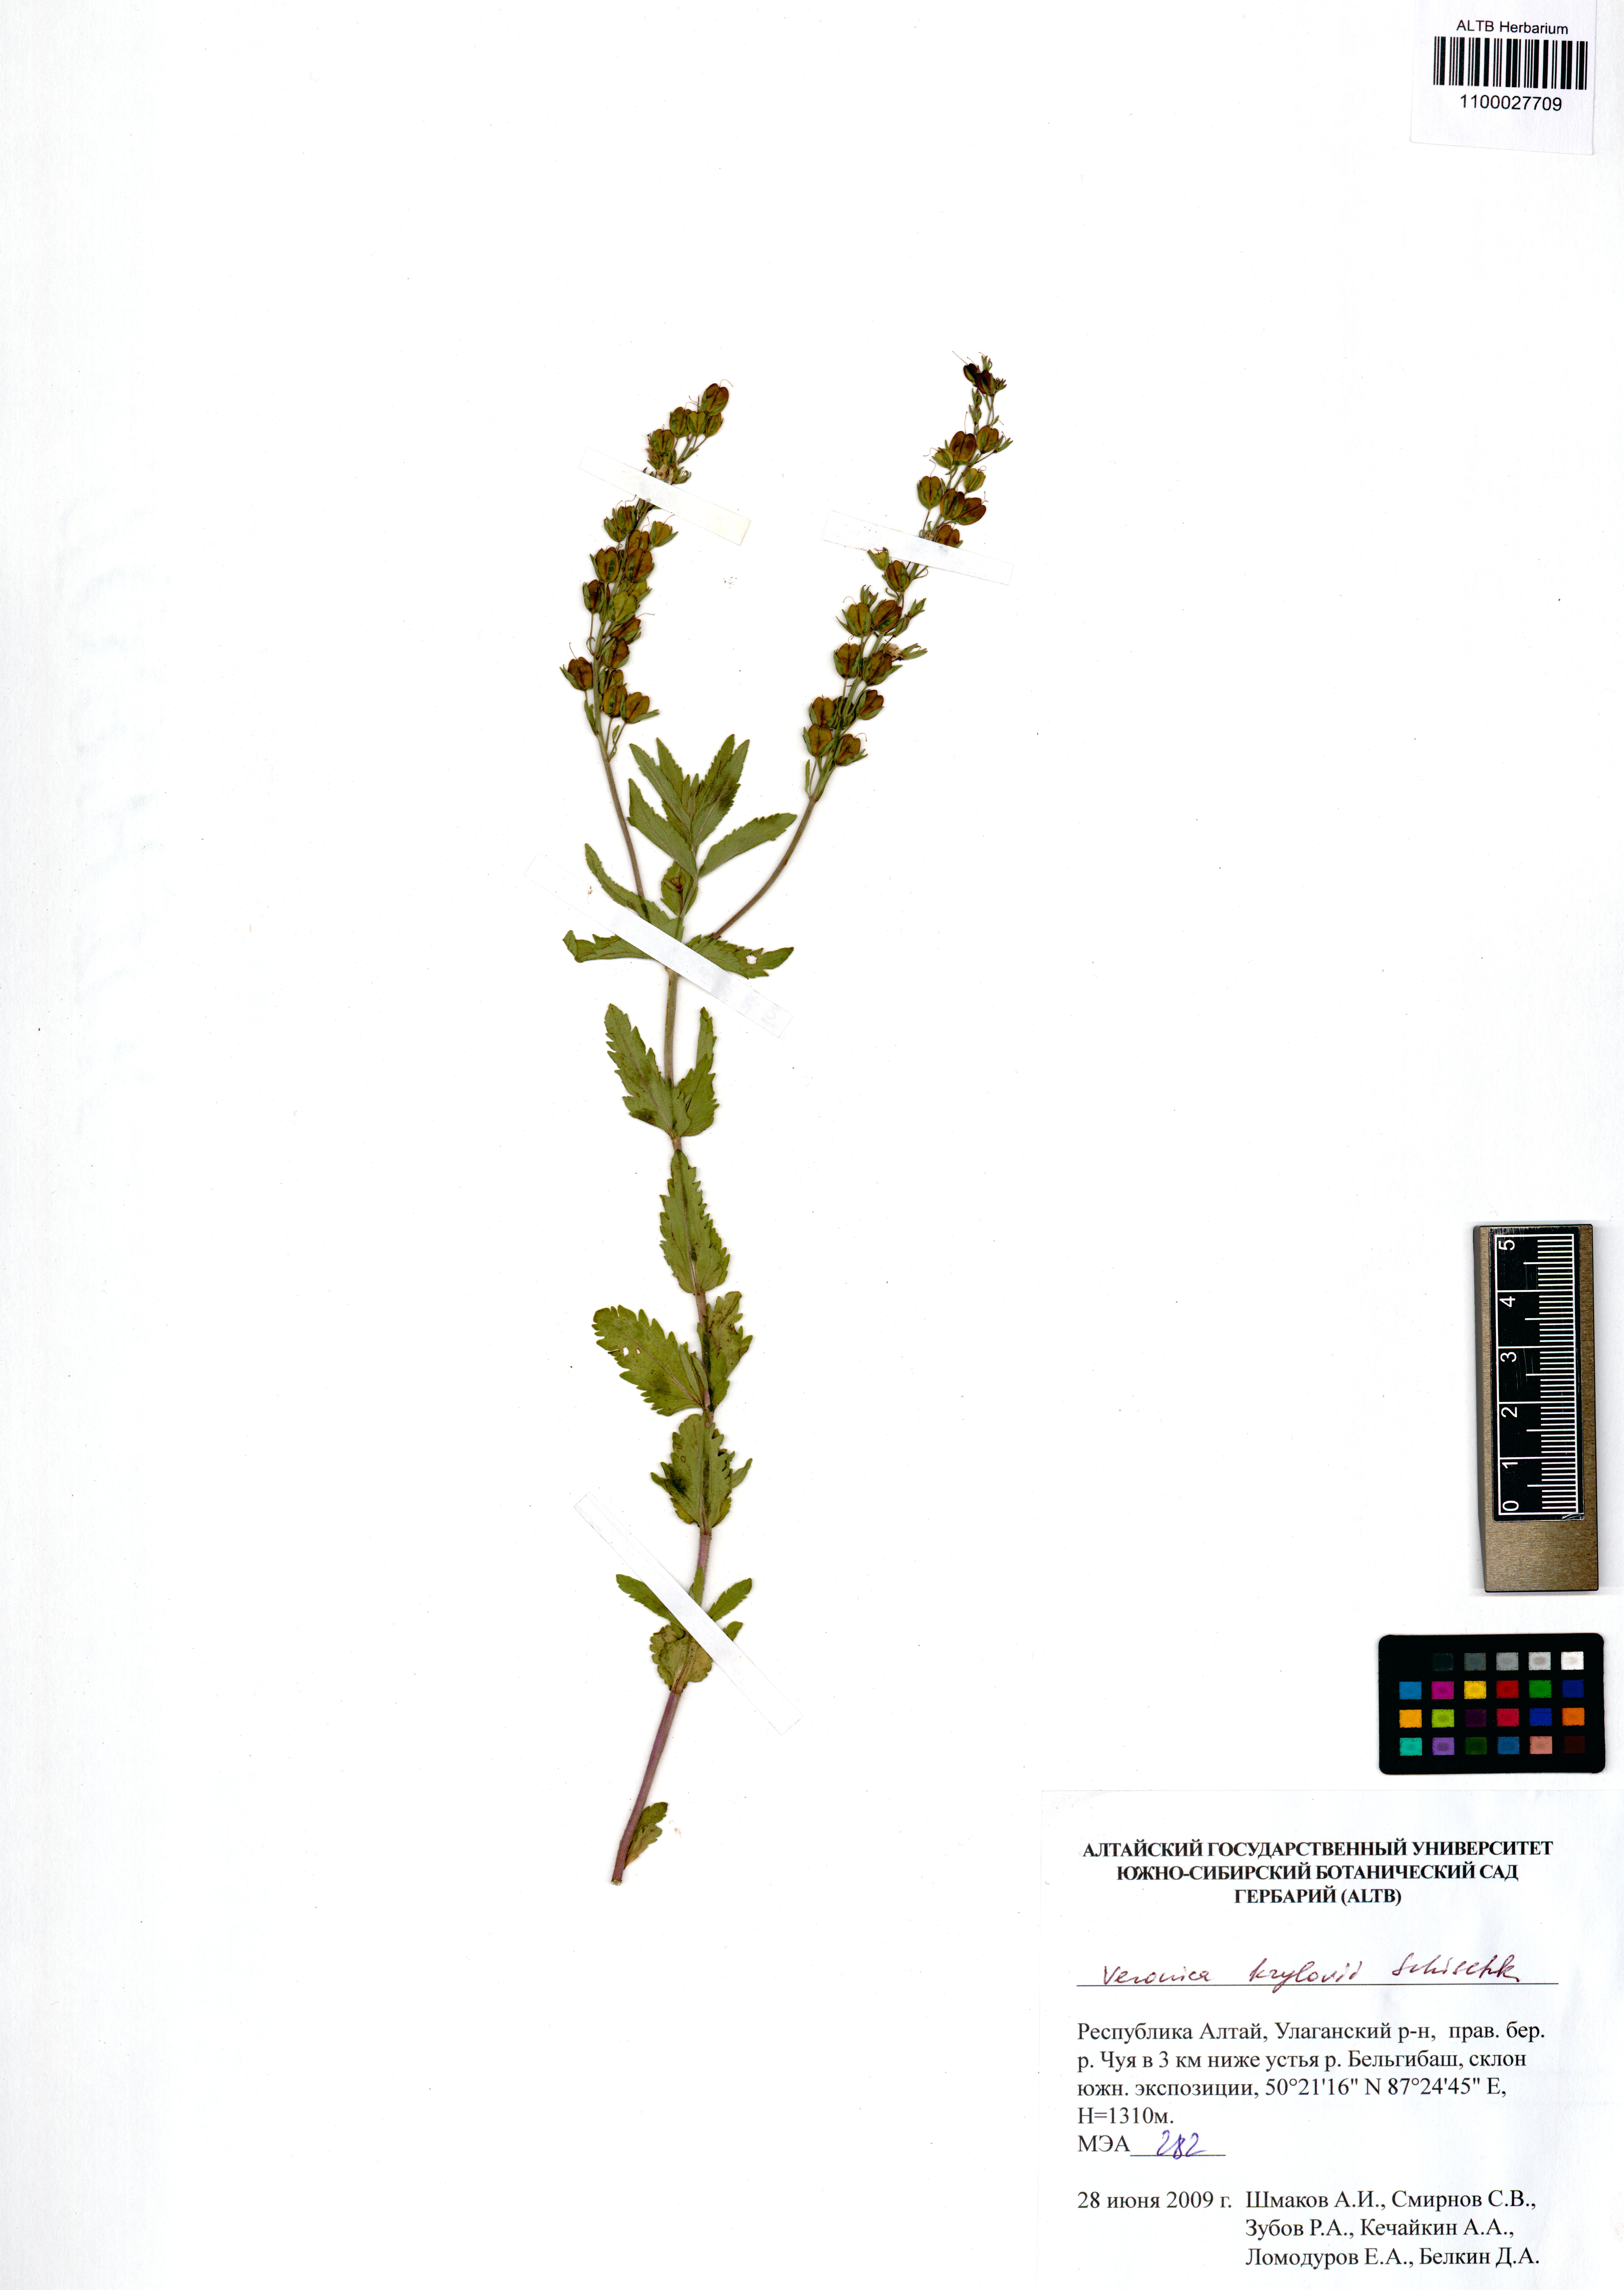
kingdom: Plantae
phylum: Tracheophyta
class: Magnoliopsida
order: Lamiales
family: Plantaginaceae
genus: Veronica
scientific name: Veronica krylovii
